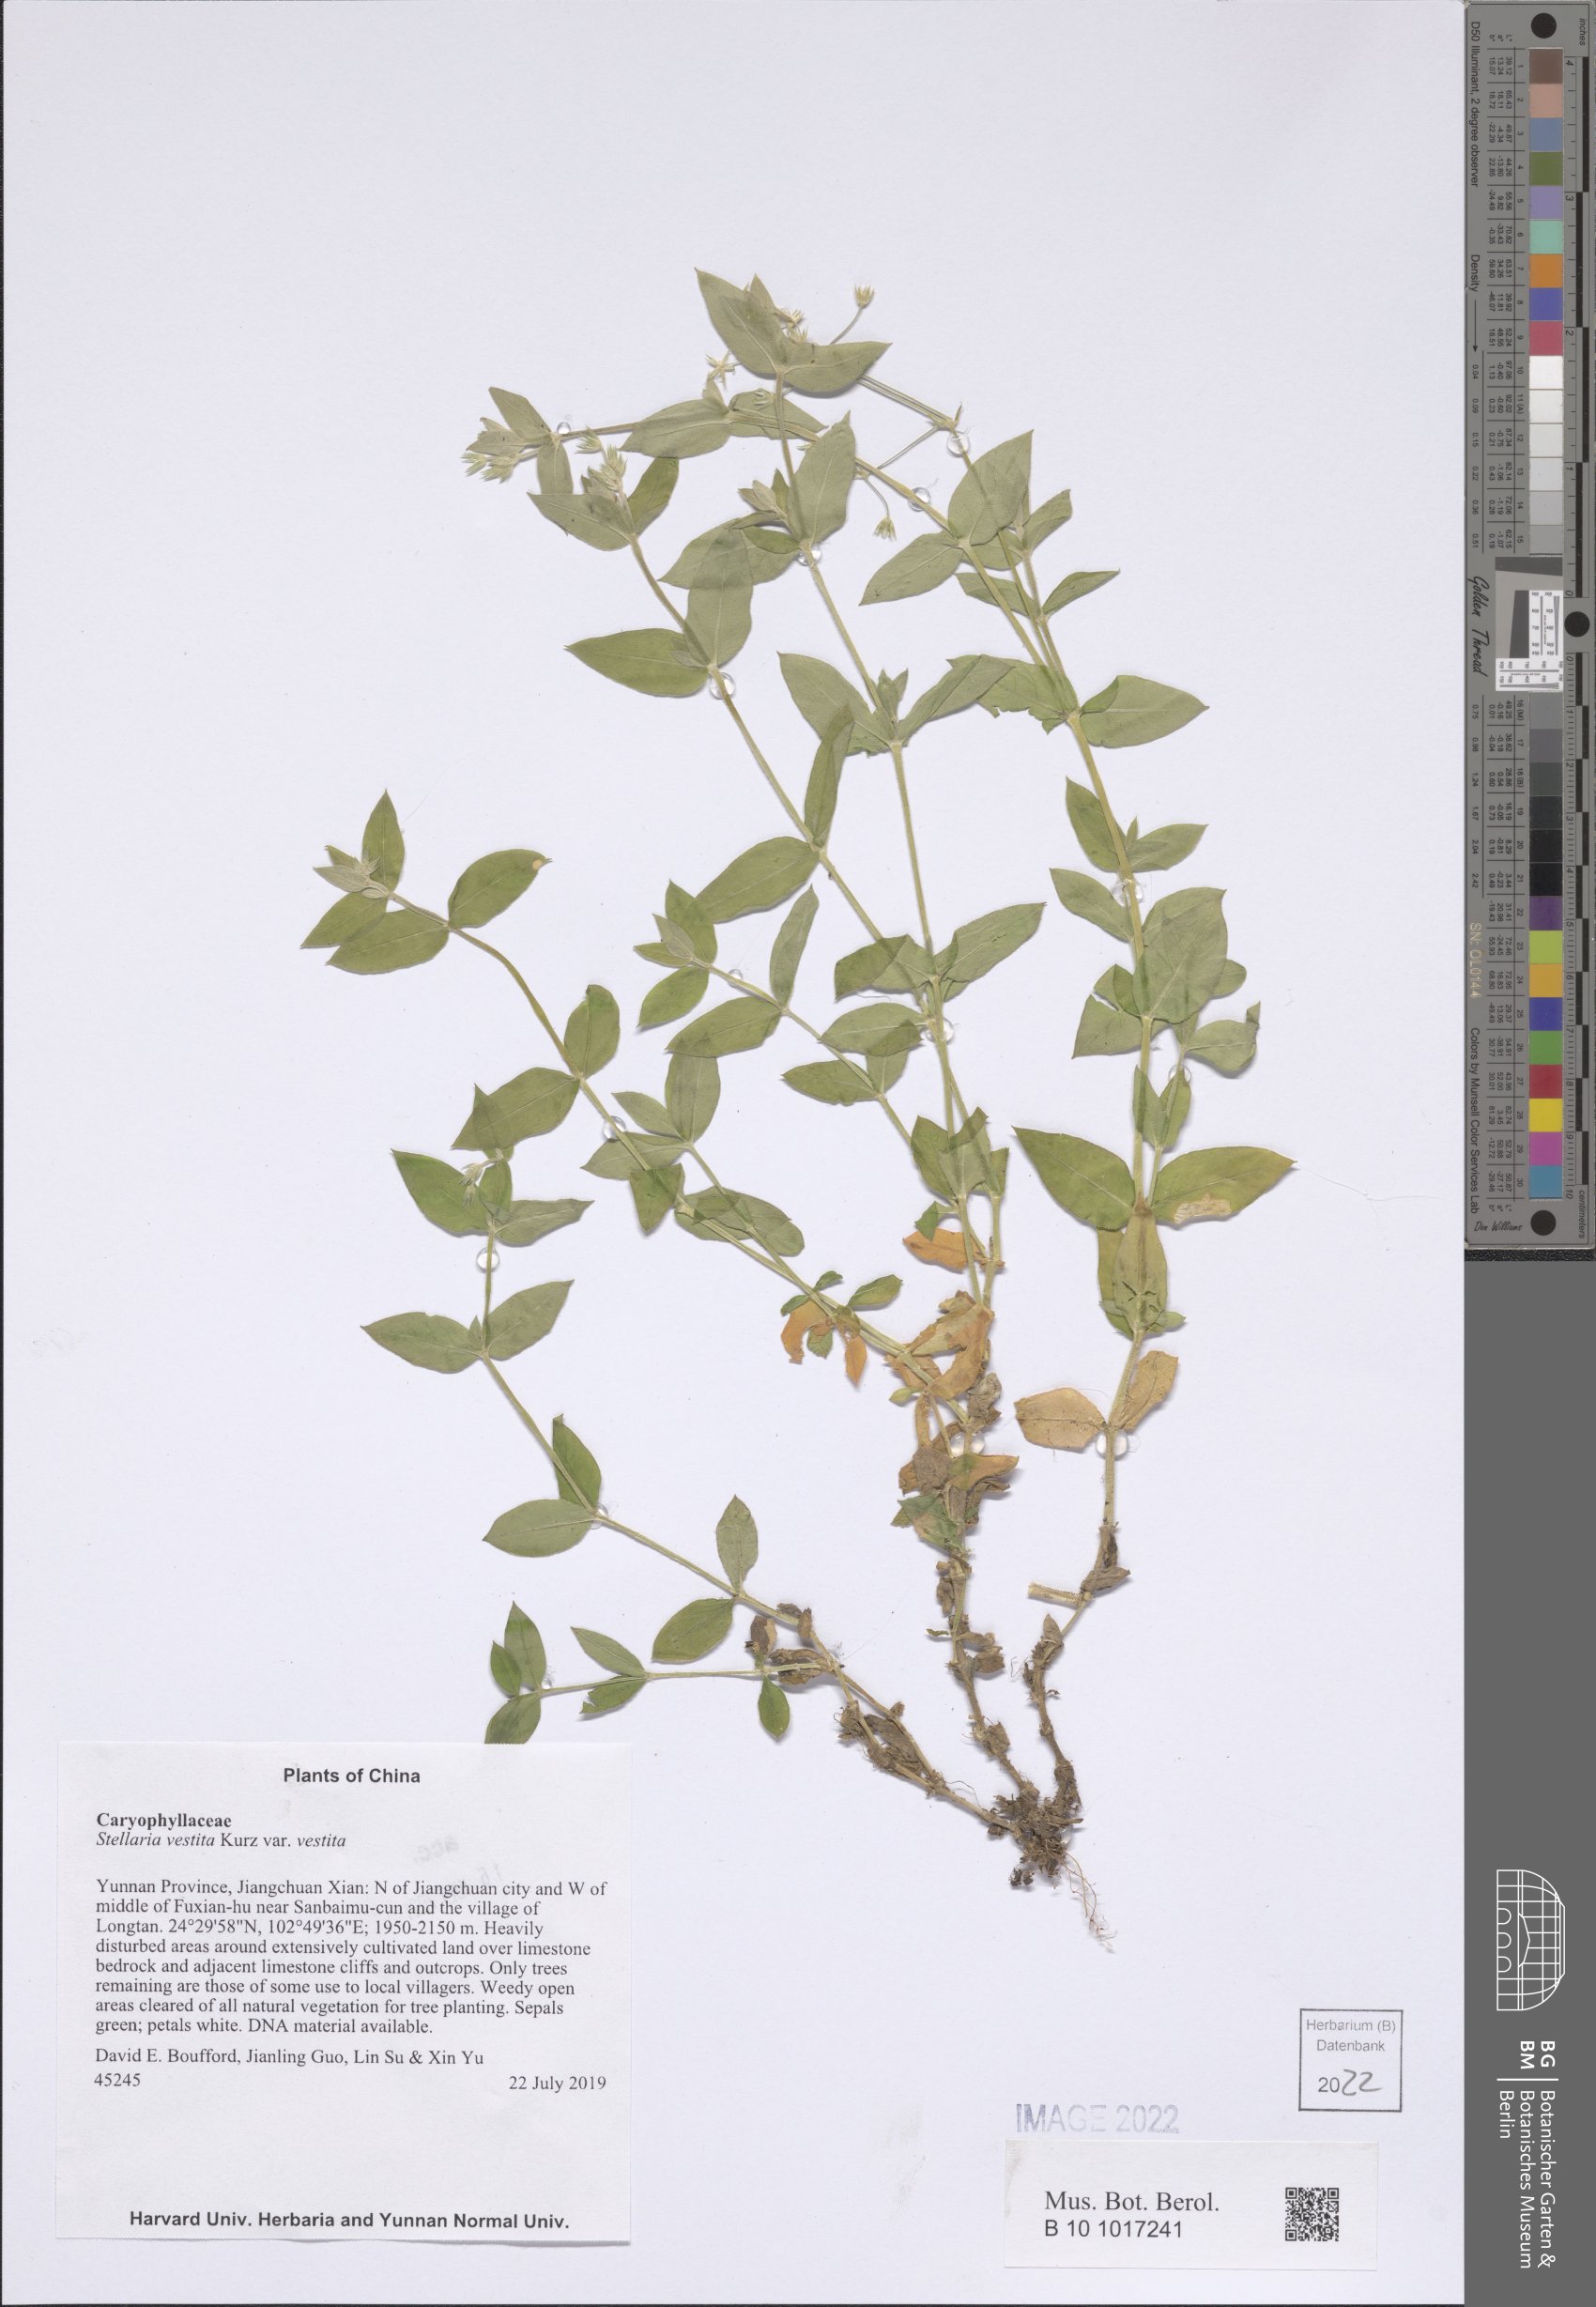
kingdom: Plantae
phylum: Tracheophyta
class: Magnoliopsida
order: Caryophyllales
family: Caryophyllaceae
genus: Stellaria
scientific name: Stellaria vestita
